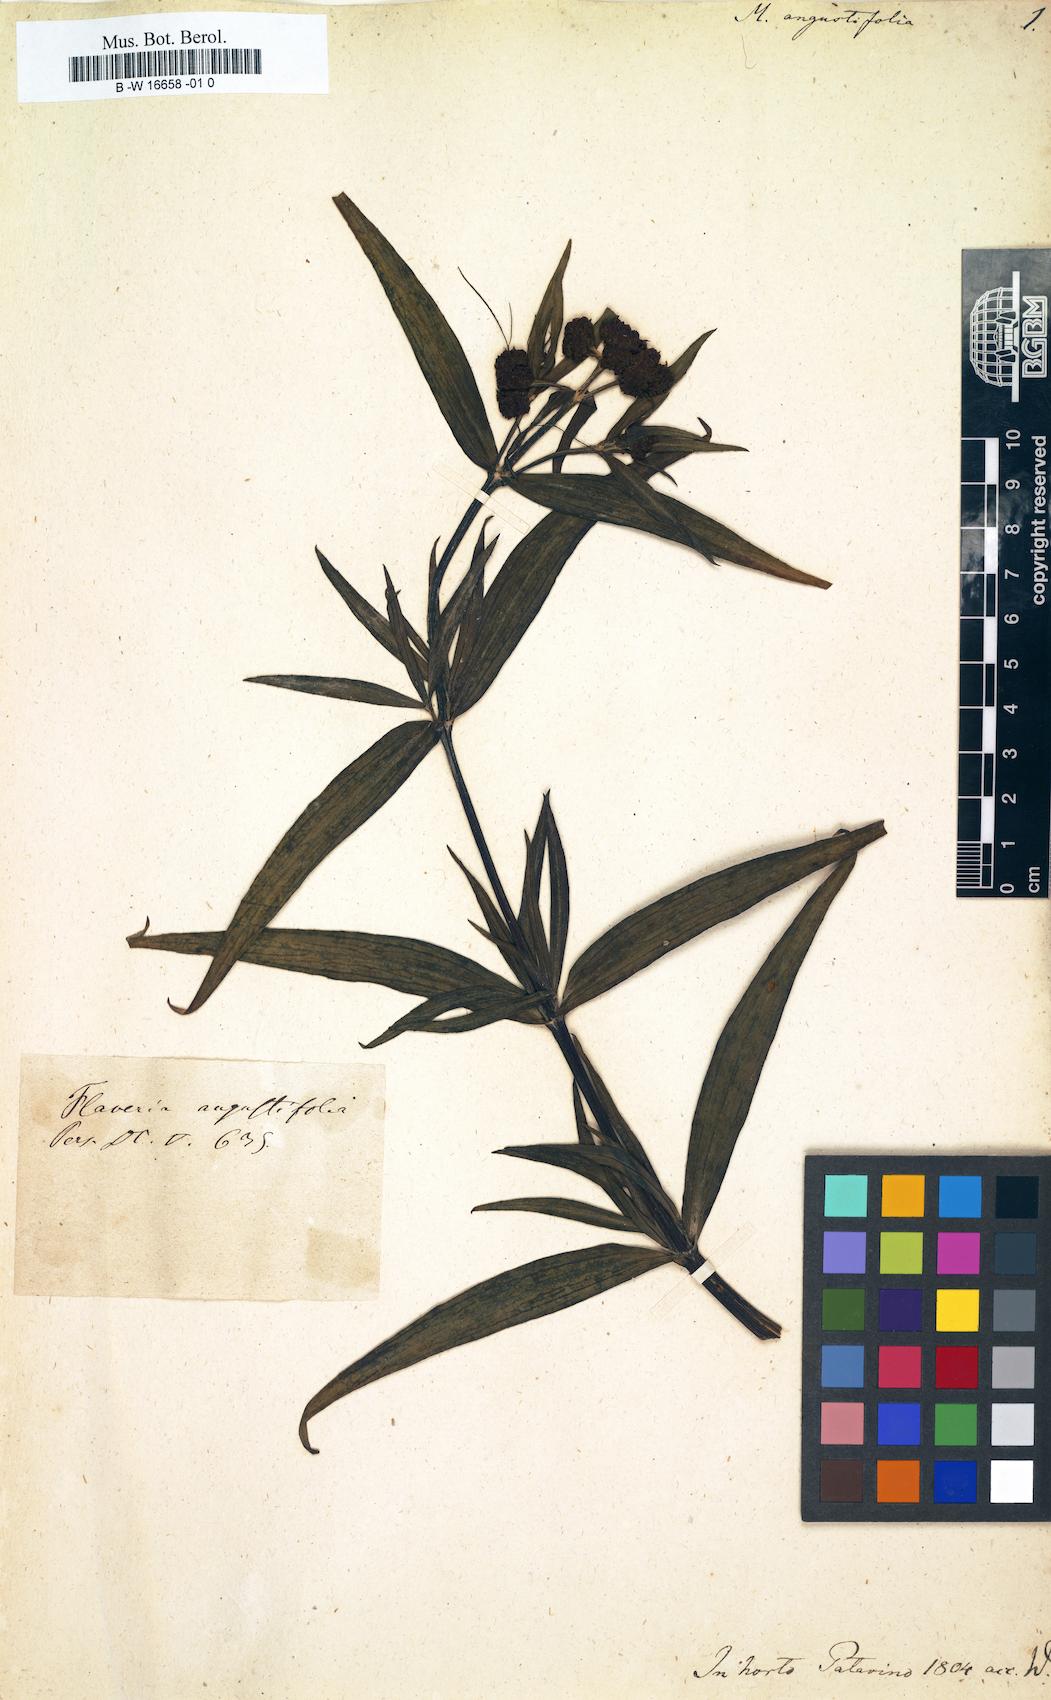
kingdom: Plantae
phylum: Tracheophyta
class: Magnoliopsida
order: Asterales
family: Asteraceae
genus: Flaveria
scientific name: Flaveria angustifolia
